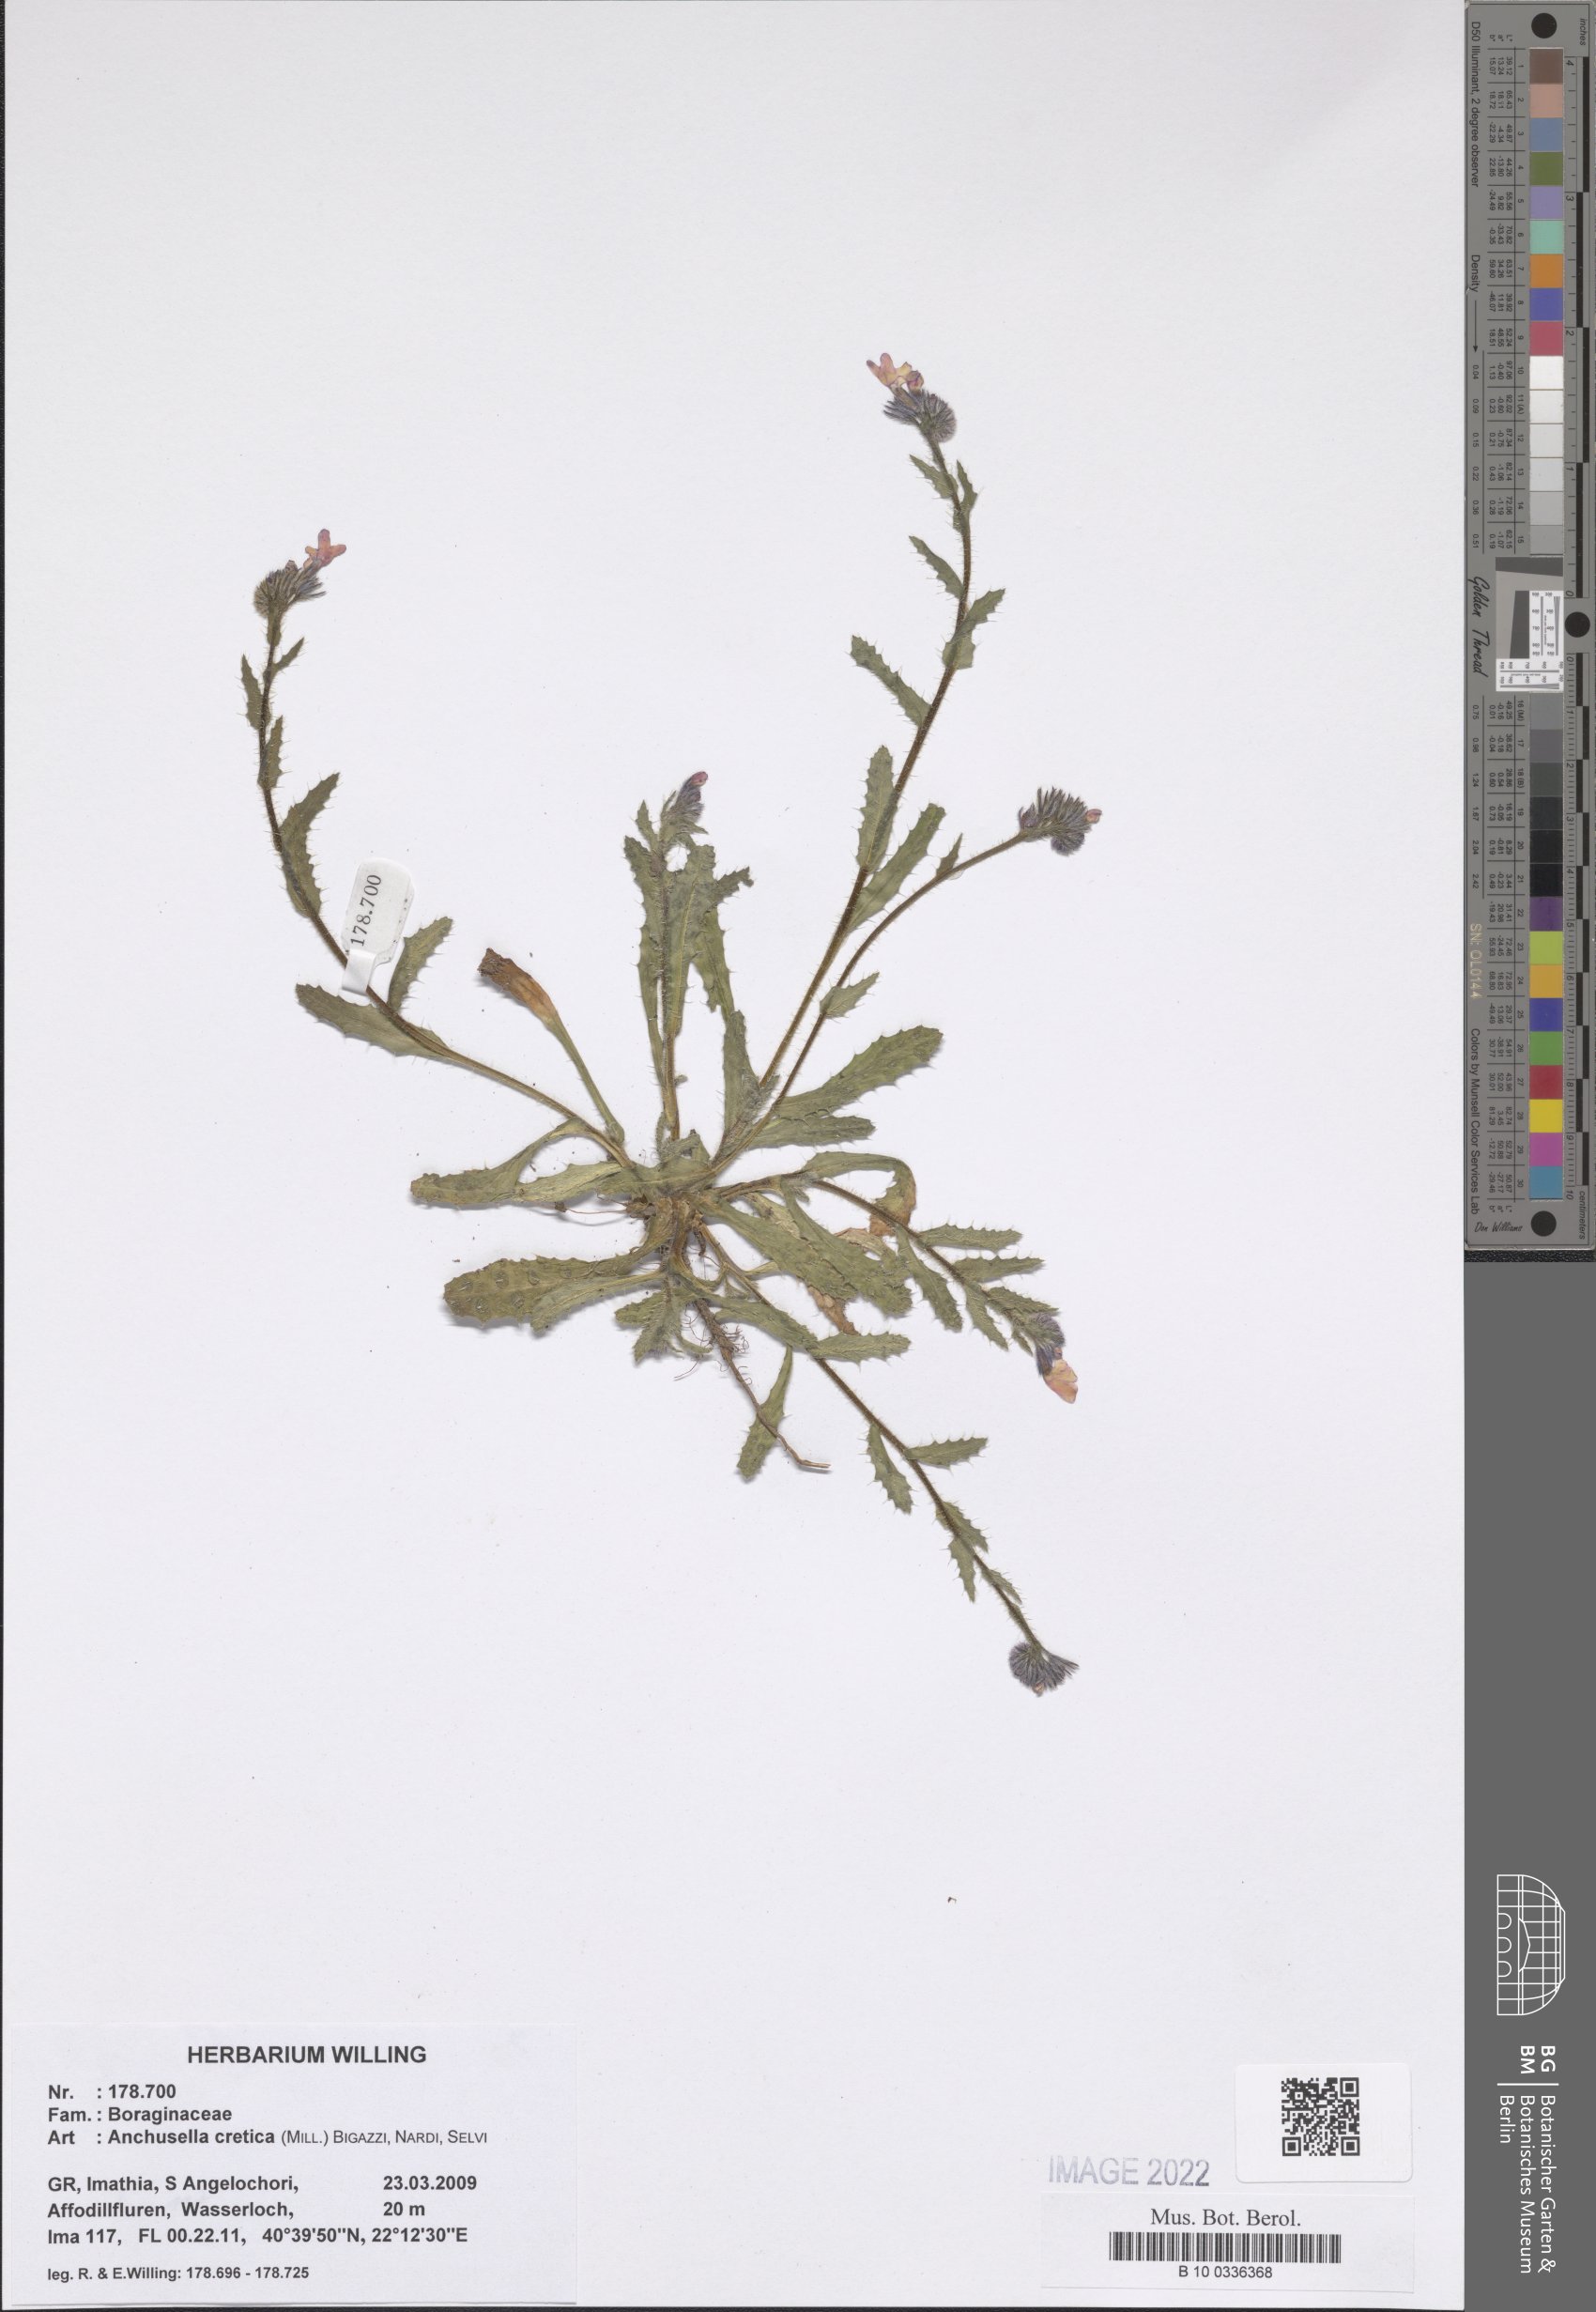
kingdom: Plantae
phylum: Tracheophyta
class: Magnoliopsida
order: Boraginales
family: Boraginaceae
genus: Anchusella
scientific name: Anchusella cretica
